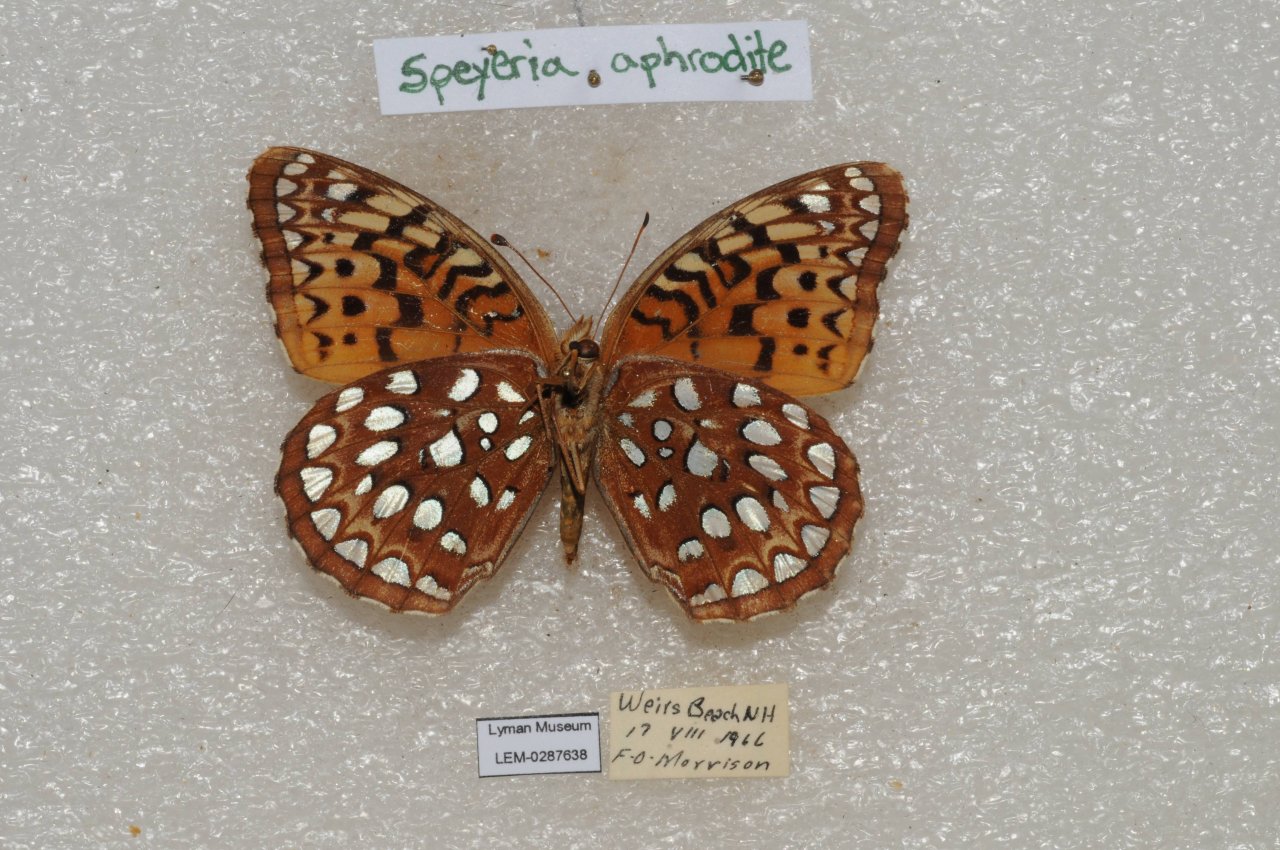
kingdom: Animalia
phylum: Arthropoda
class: Insecta
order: Lepidoptera
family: Nymphalidae
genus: Speyeria
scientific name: Speyeria aphrodite
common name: Aphrodite Fritillary
